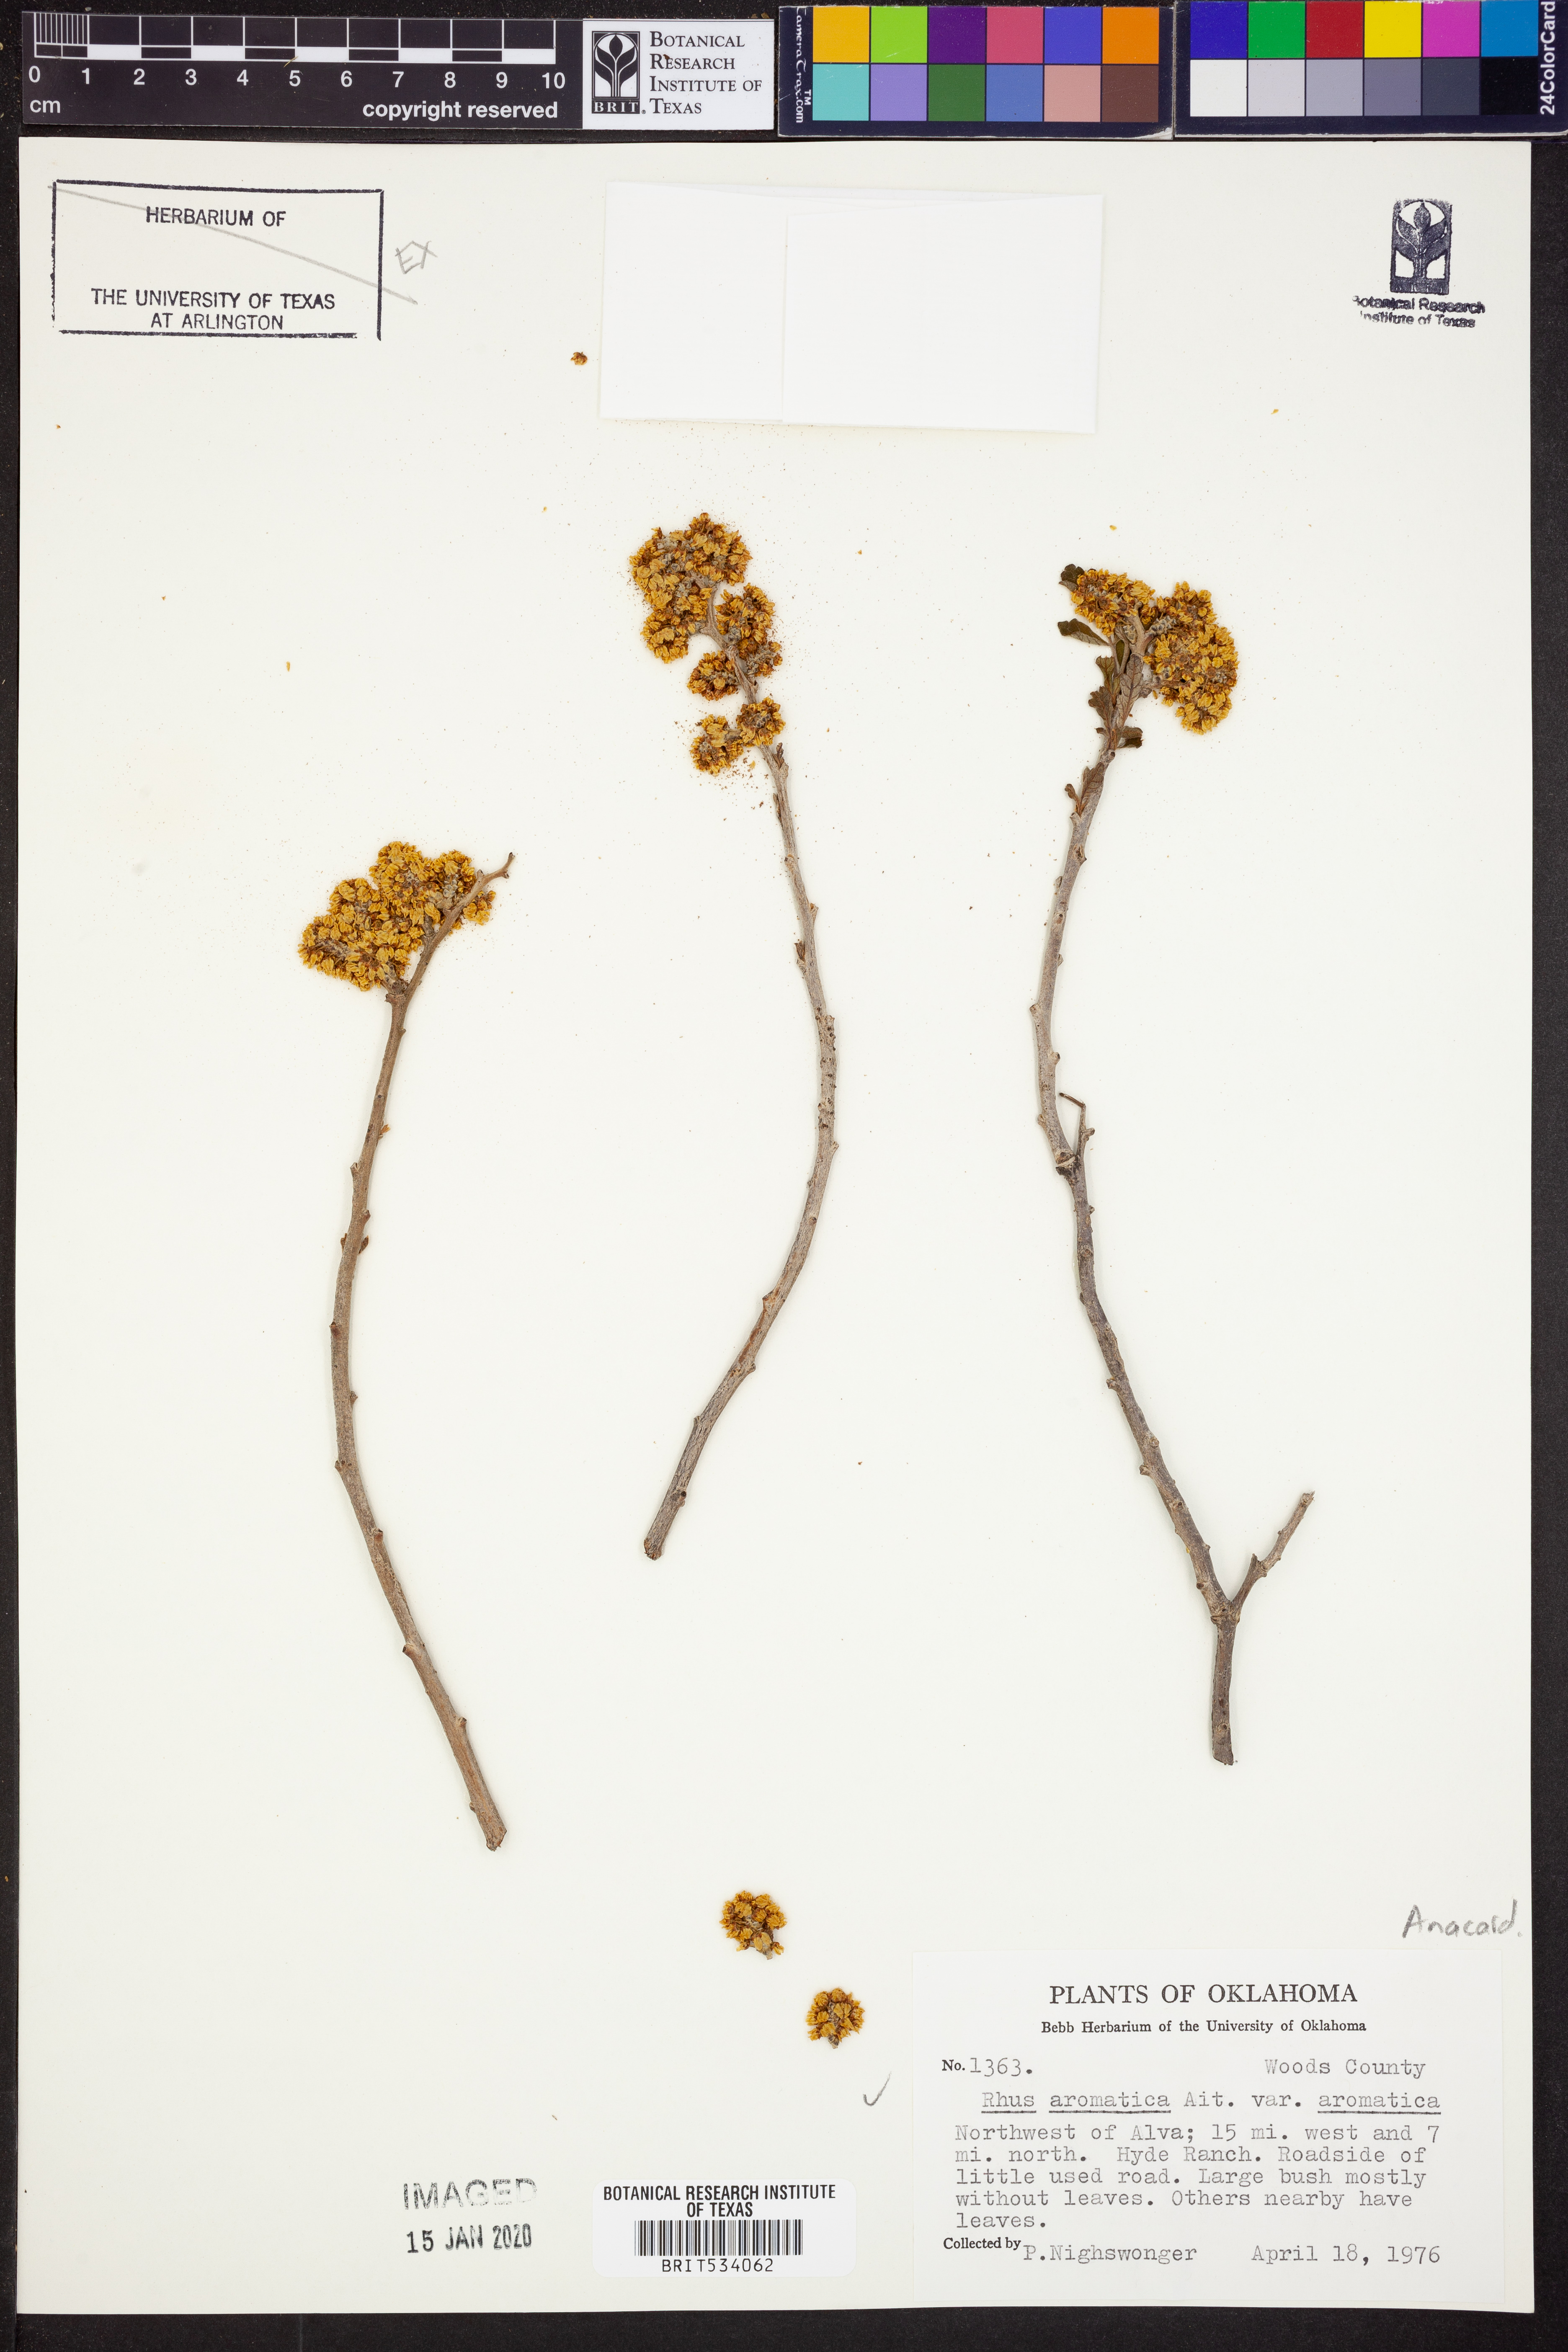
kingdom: Plantae
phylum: Tracheophyta
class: Magnoliopsida
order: Sapindales
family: Anacardiaceae
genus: Rhus
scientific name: Rhus aromatica
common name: Aromatic sumac
